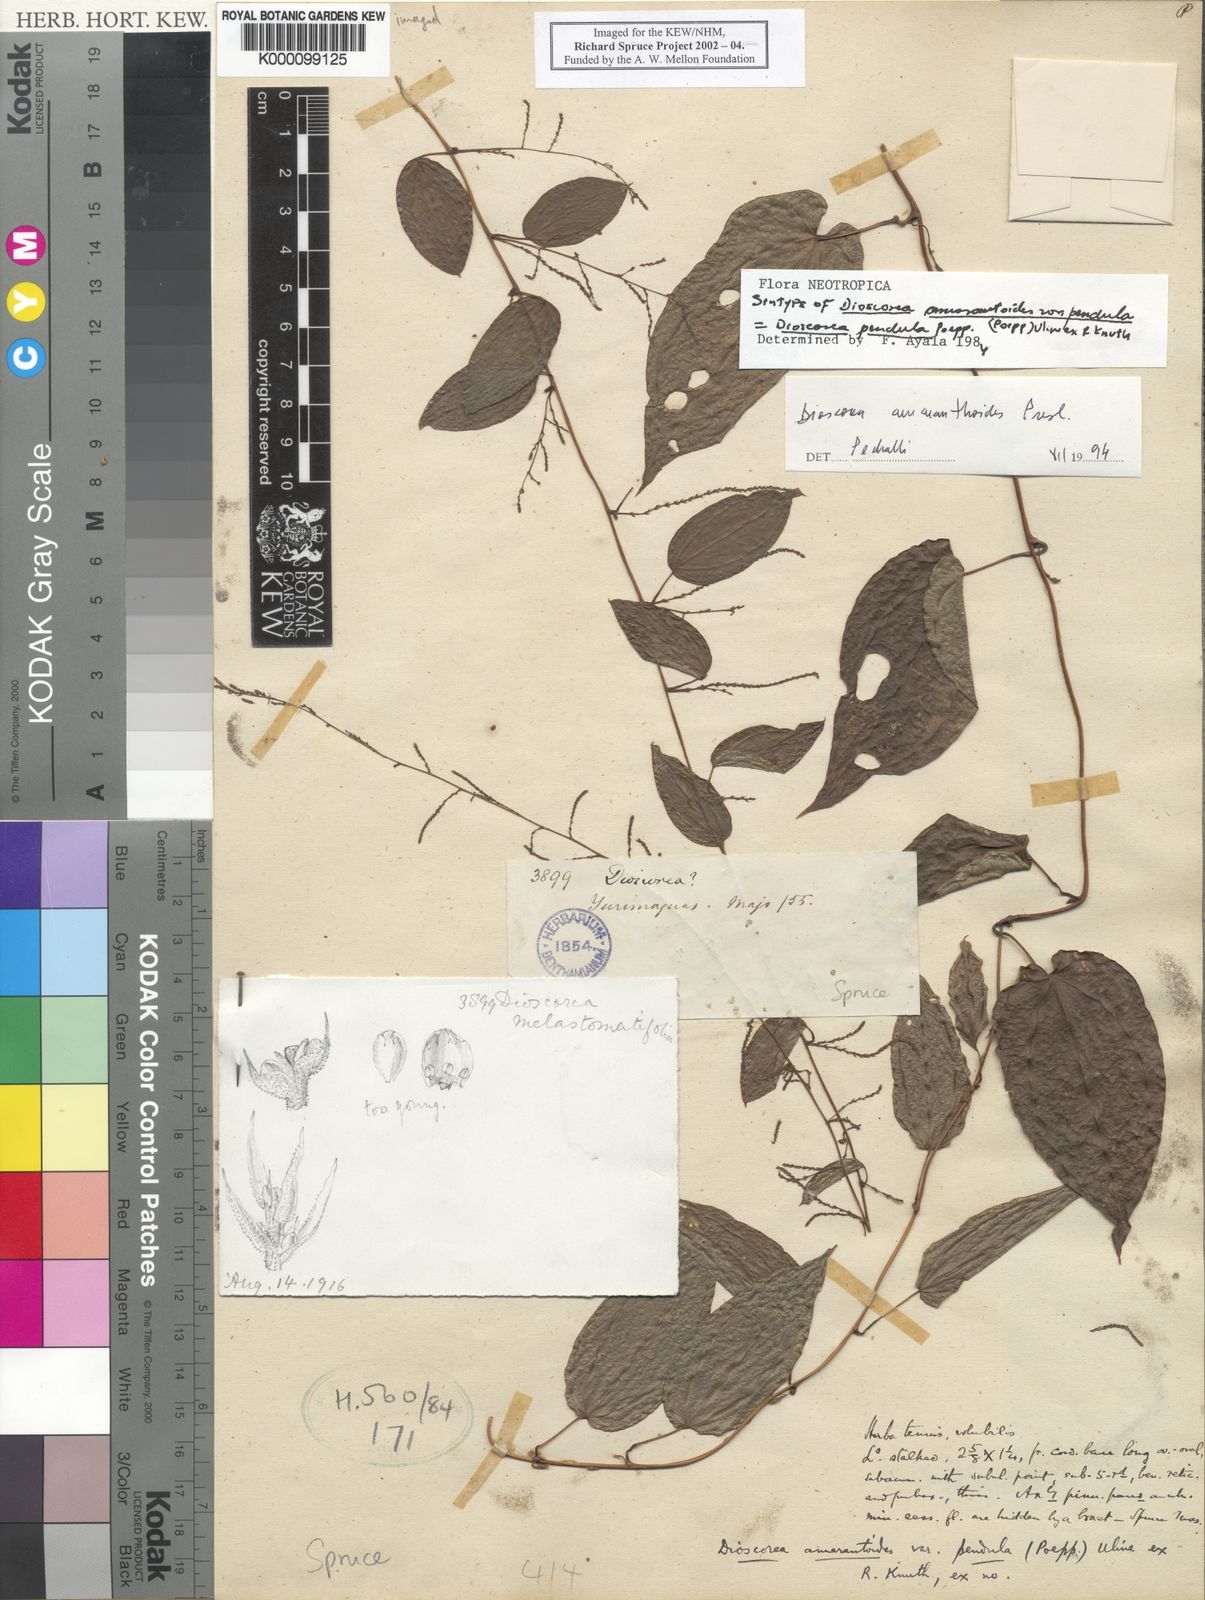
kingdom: Plantae
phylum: Tracheophyta
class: Liliopsida
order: Dioscoreales
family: Dioscoreaceae
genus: Dioscorea
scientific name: Dioscorea amaranthoides
